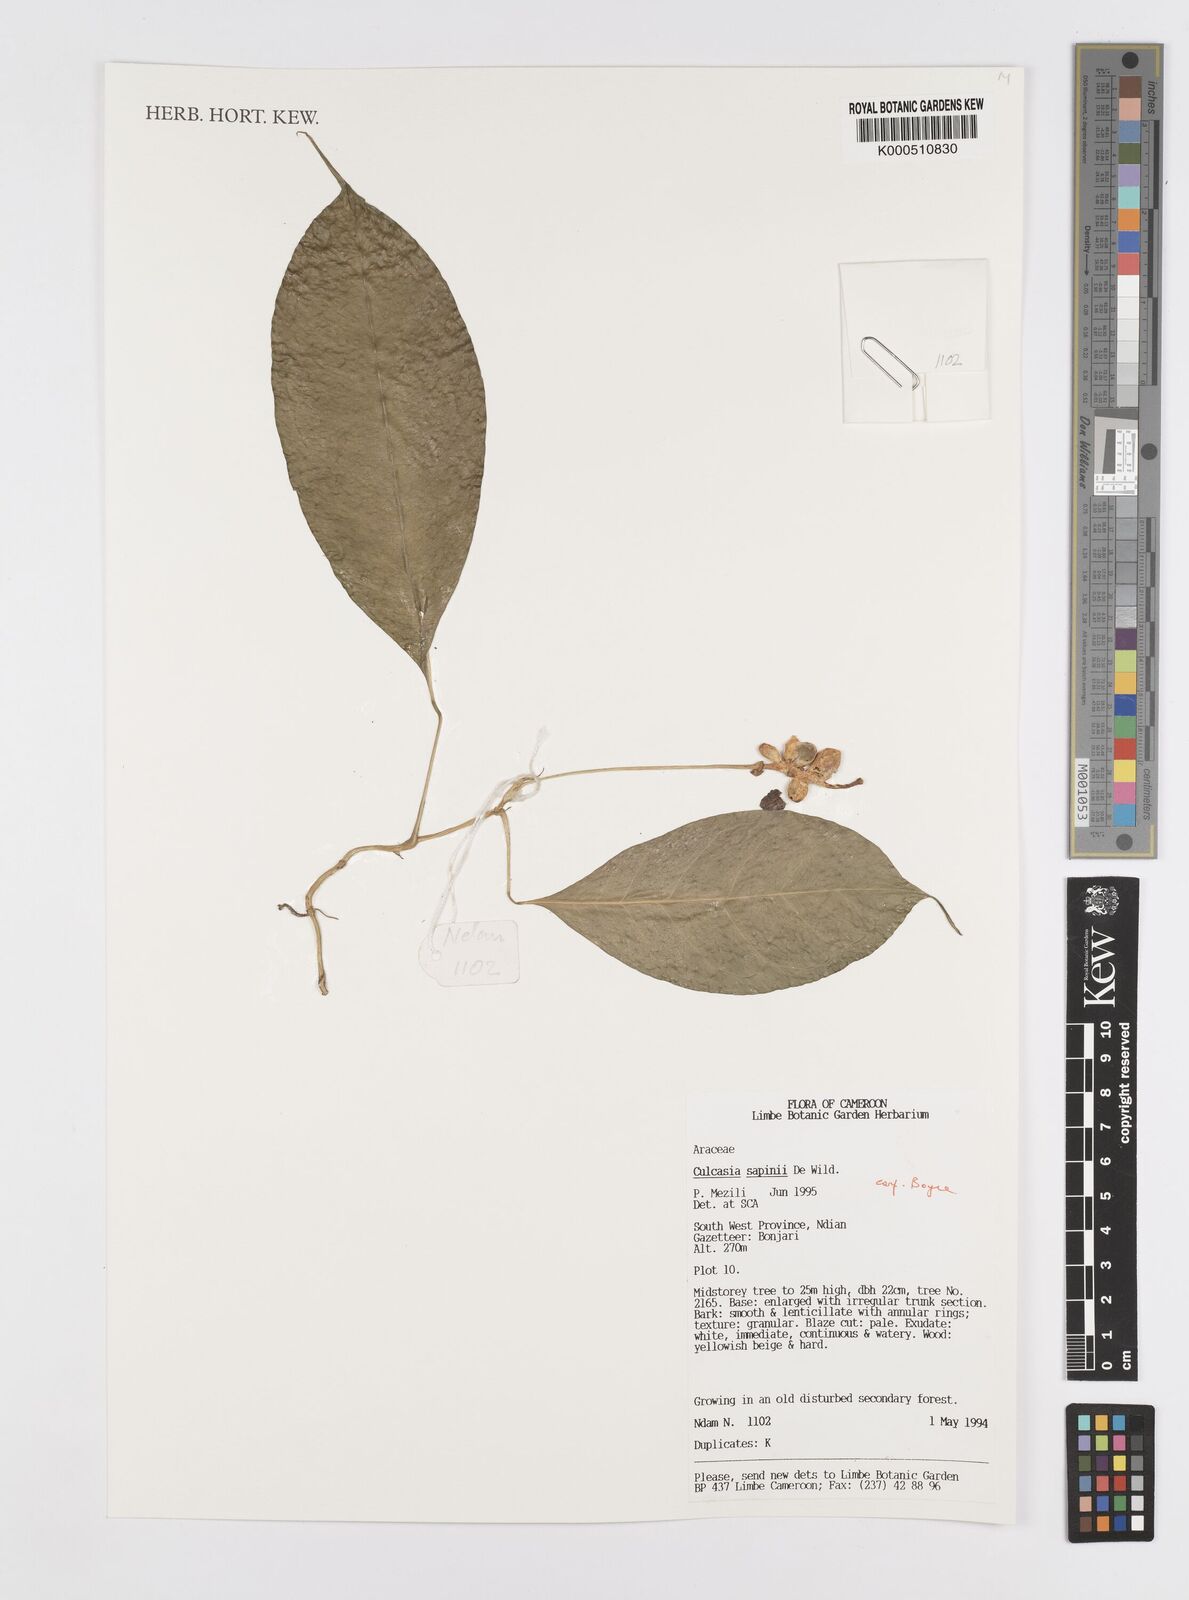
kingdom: Plantae
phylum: Tracheophyta
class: Liliopsida
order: Alismatales
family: Araceae
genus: Culcasia
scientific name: Culcasia seretii
